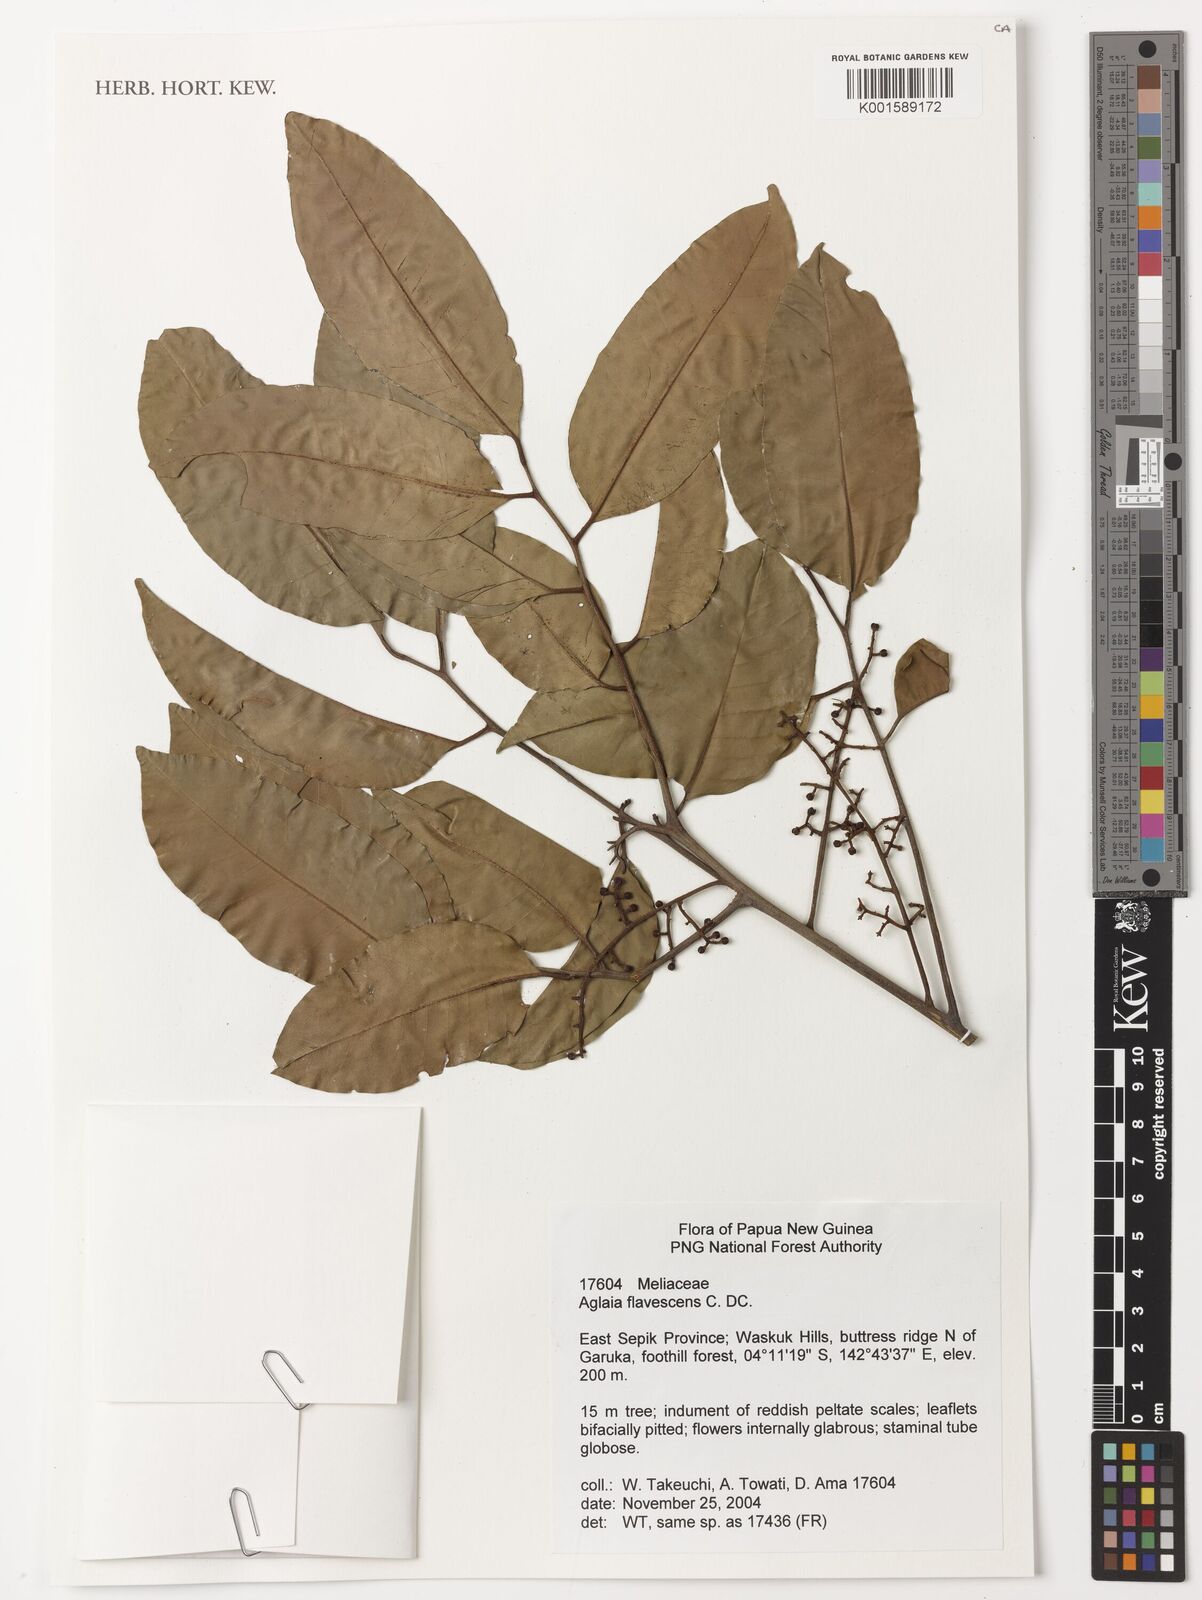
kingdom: Plantae
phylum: Tracheophyta
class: Magnoliopsida
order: Sapindales
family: Meliaceae
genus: Aglaia
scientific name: Aglaia flavescens
